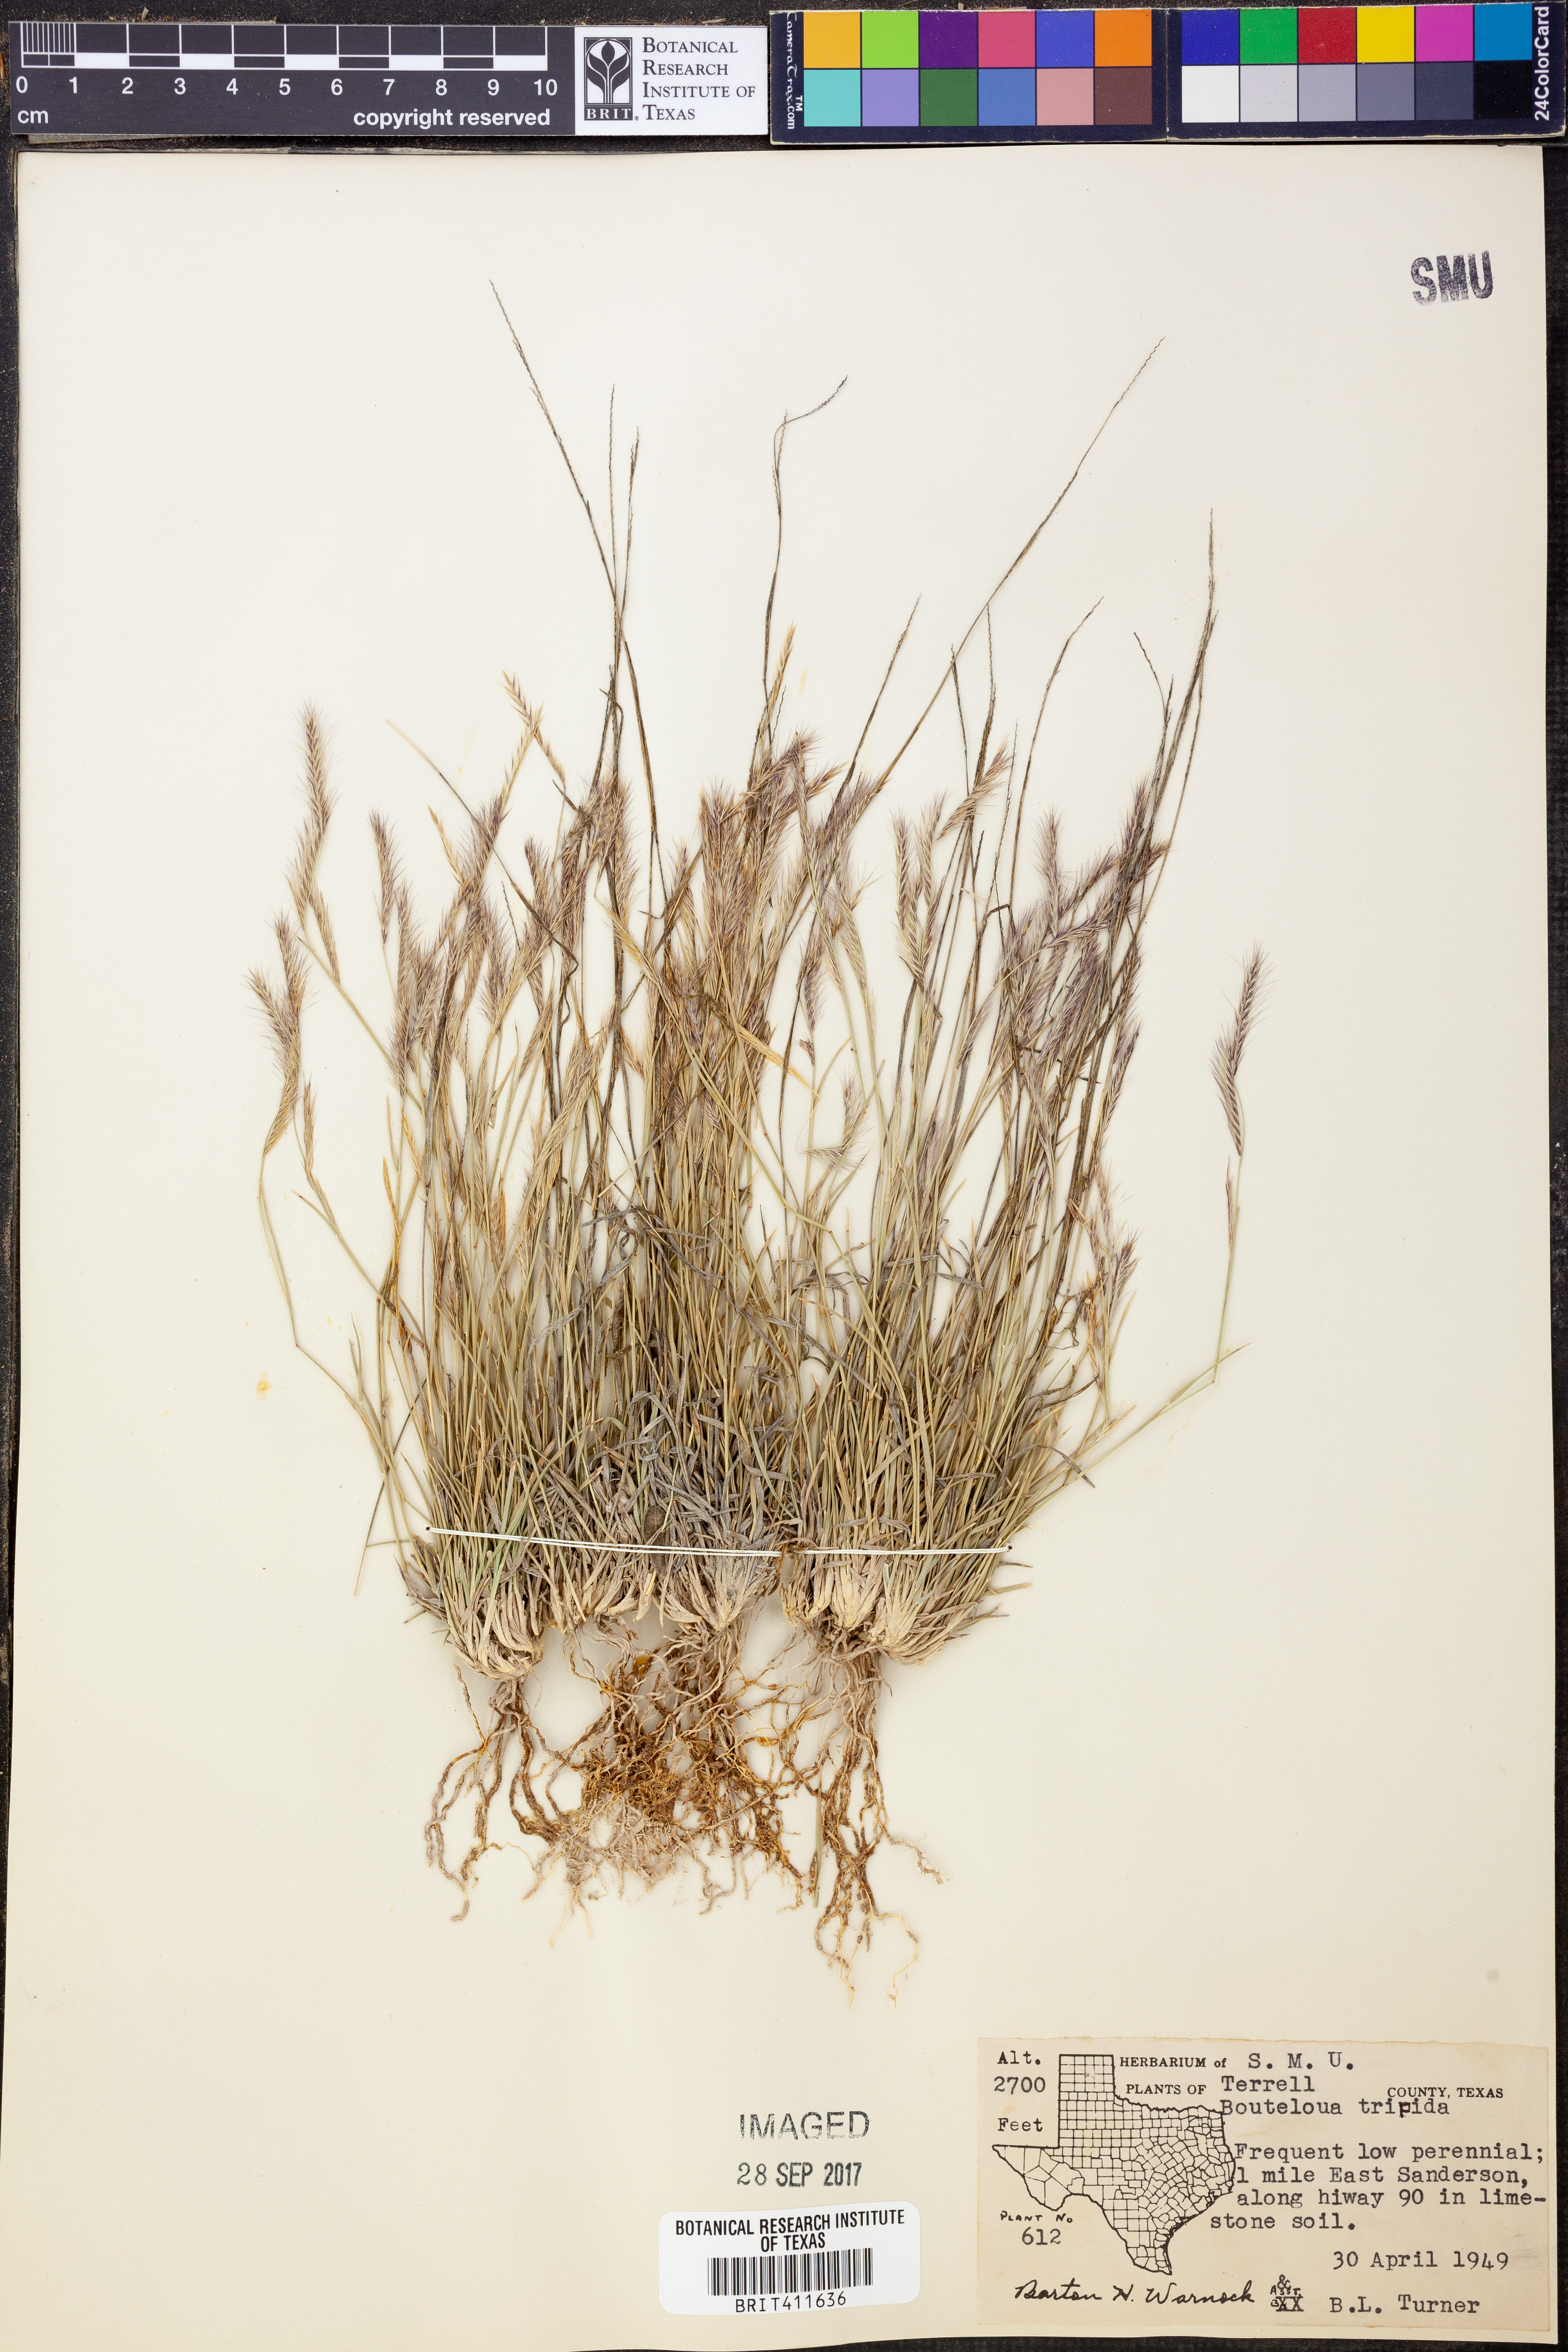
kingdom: Plantae
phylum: Tracheophyta
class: Liliopsida
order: Poales
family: Poaceae
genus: Bouteloua
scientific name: Bouteloua trifida
